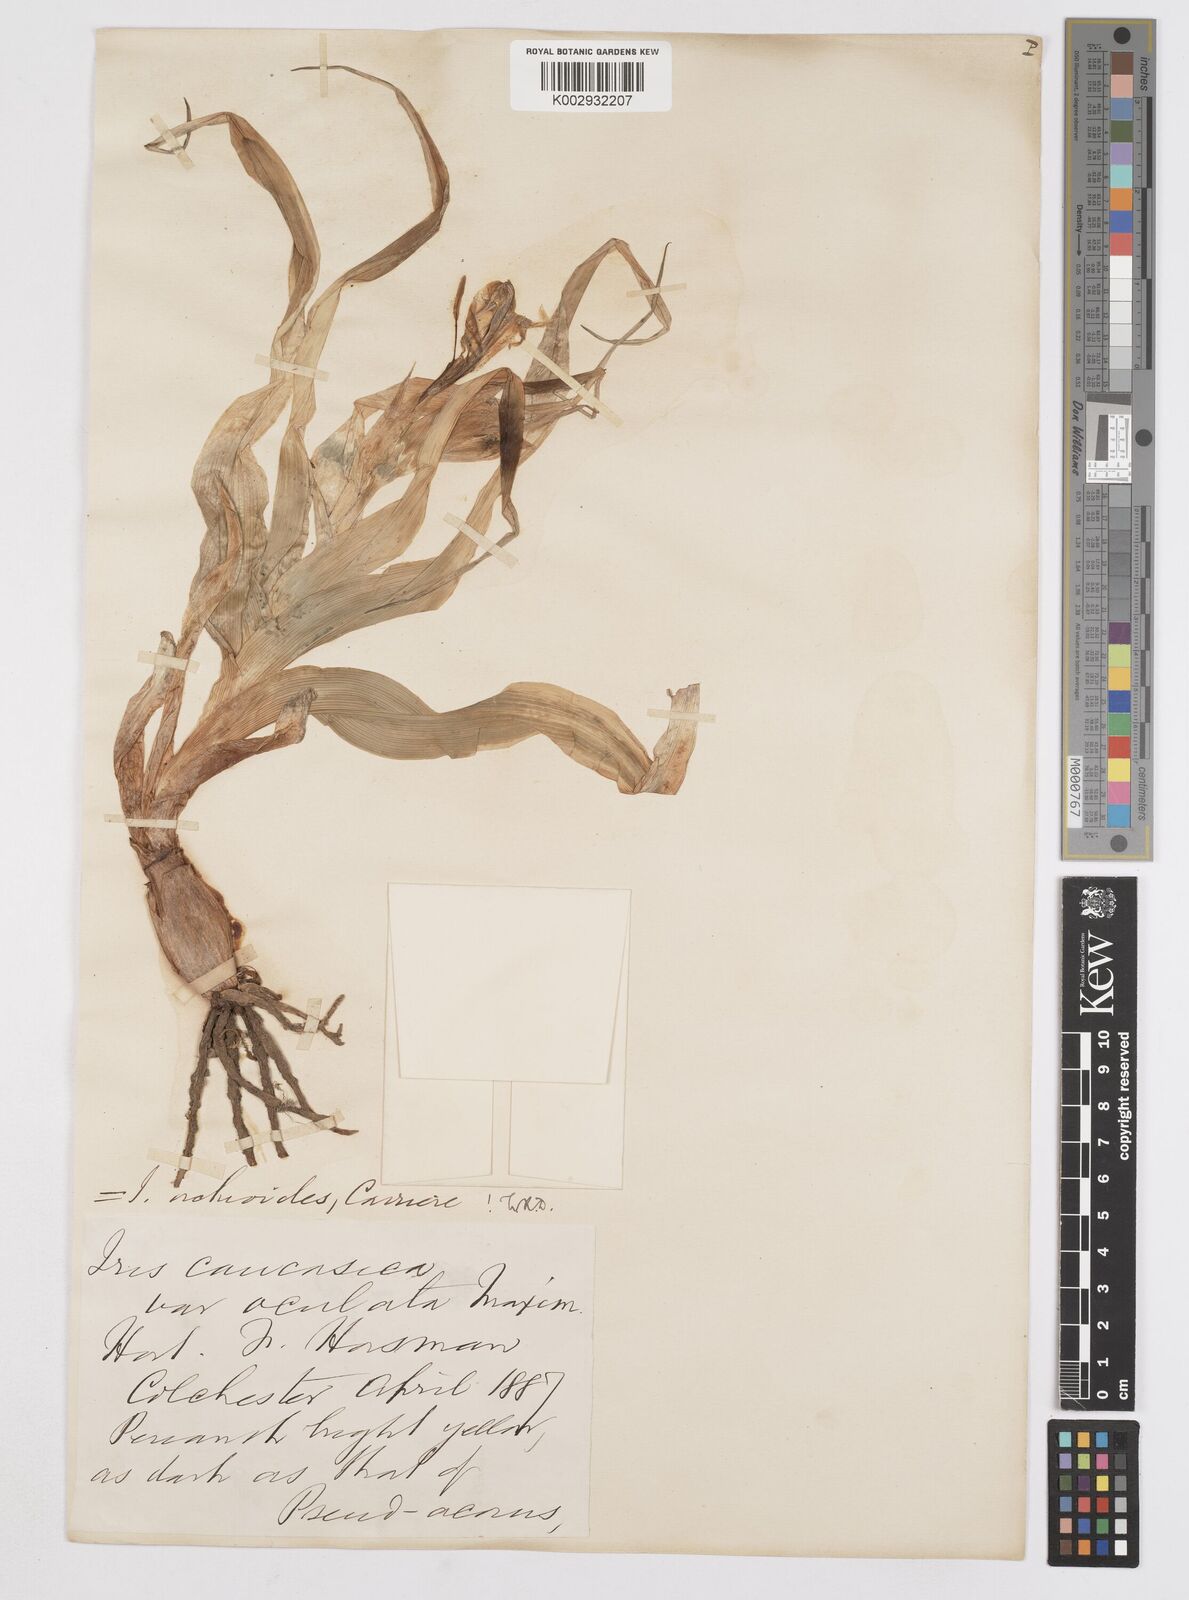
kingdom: Plantae
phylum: Tracheophyta
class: Liliopsida
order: Asparagales
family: Iridaceae
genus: Iris
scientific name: Iris orchioides
